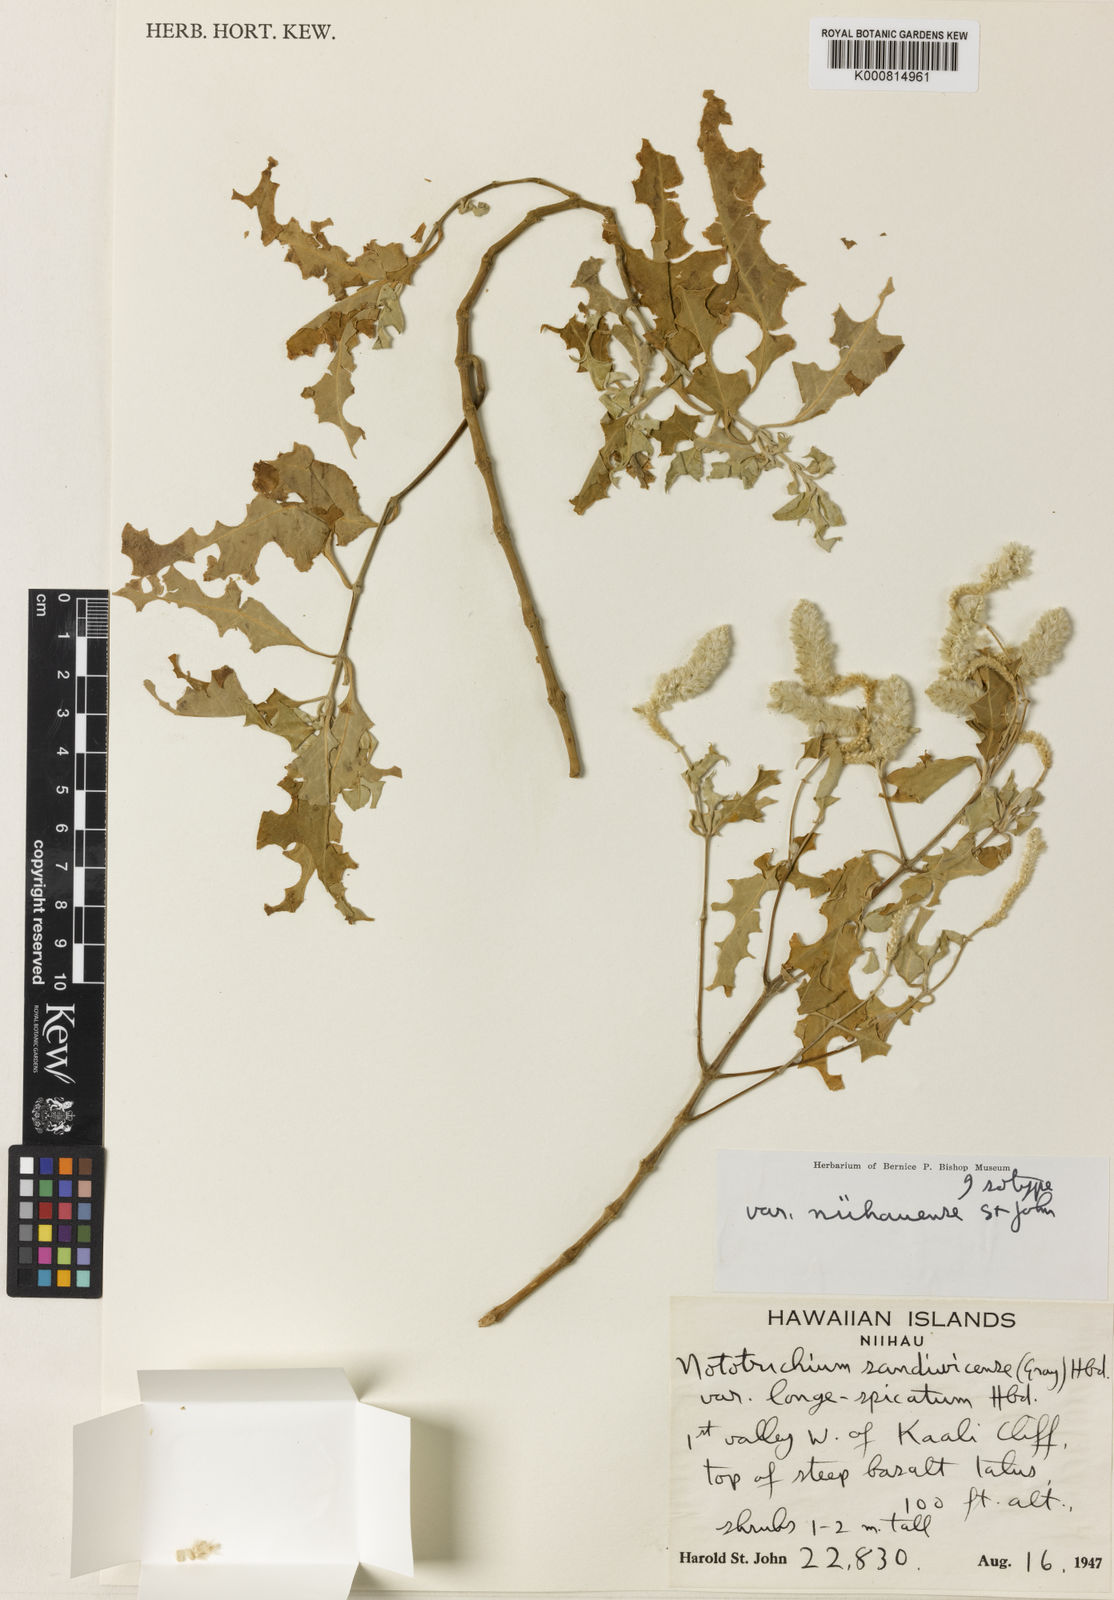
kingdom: Plantae
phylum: Tracheophyta
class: Magnoliopsida
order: Caryophyllales
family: Amaranthaceae
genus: Nototrichium
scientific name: Nototrichium
